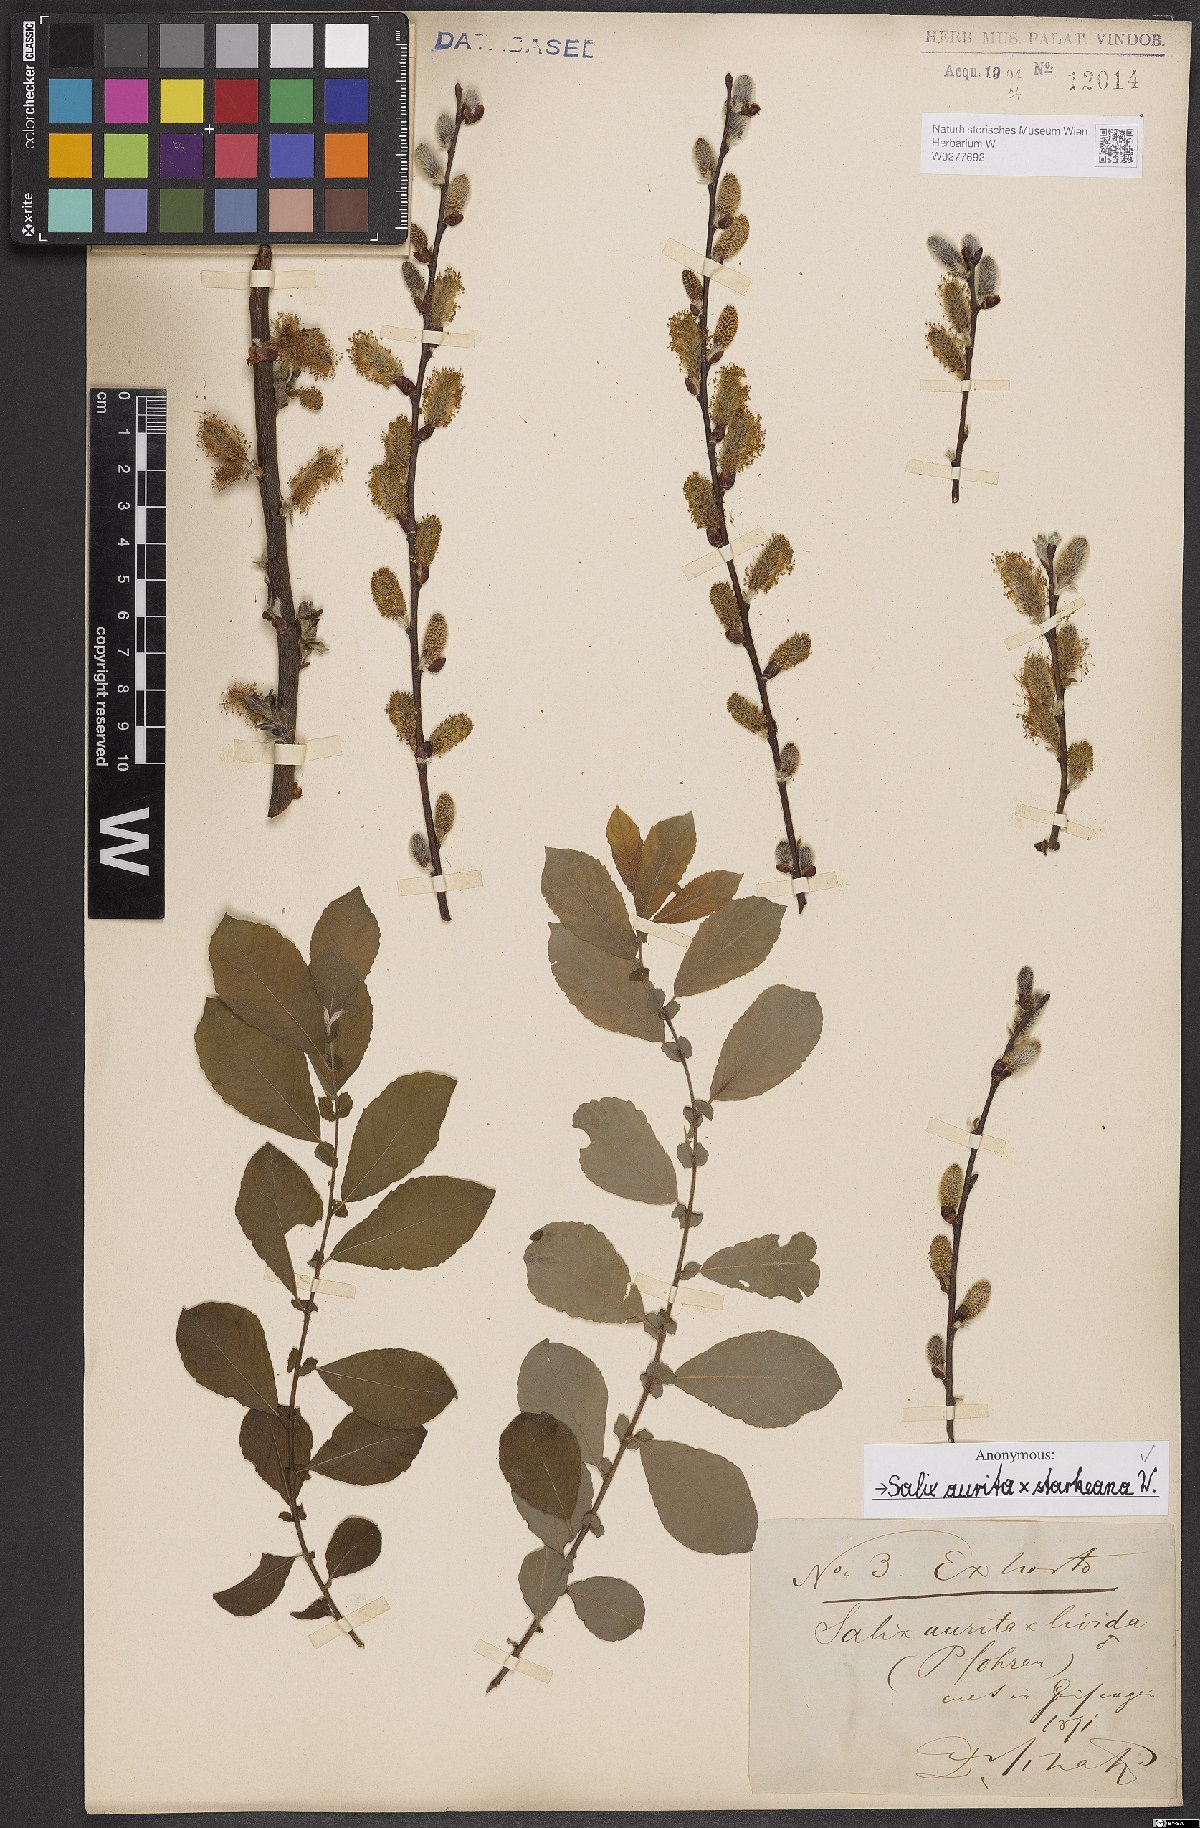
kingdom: Plantae
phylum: Tracheophyta
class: Magnoliopsida
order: Malpighiales
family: Salicaceae
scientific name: Salicaceae
